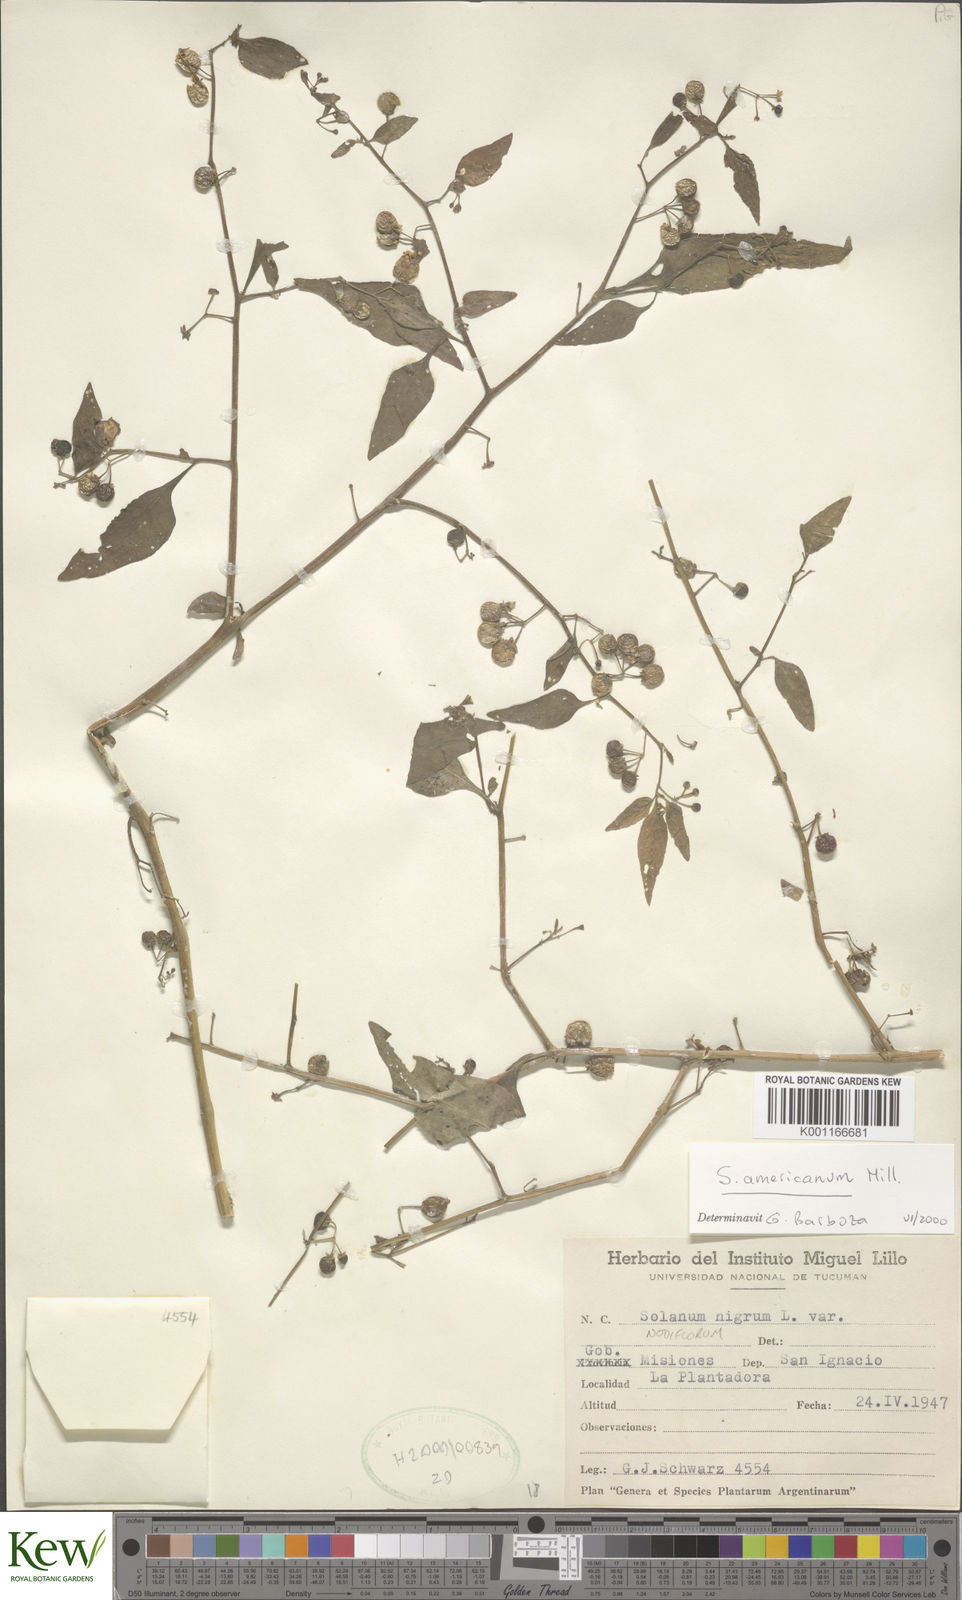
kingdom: Plantae
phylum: Tracheophyta
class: Magnoliopsida
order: Solanales
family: Solanaceae
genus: Solanum
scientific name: Solanum americanum
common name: American black nightshade
